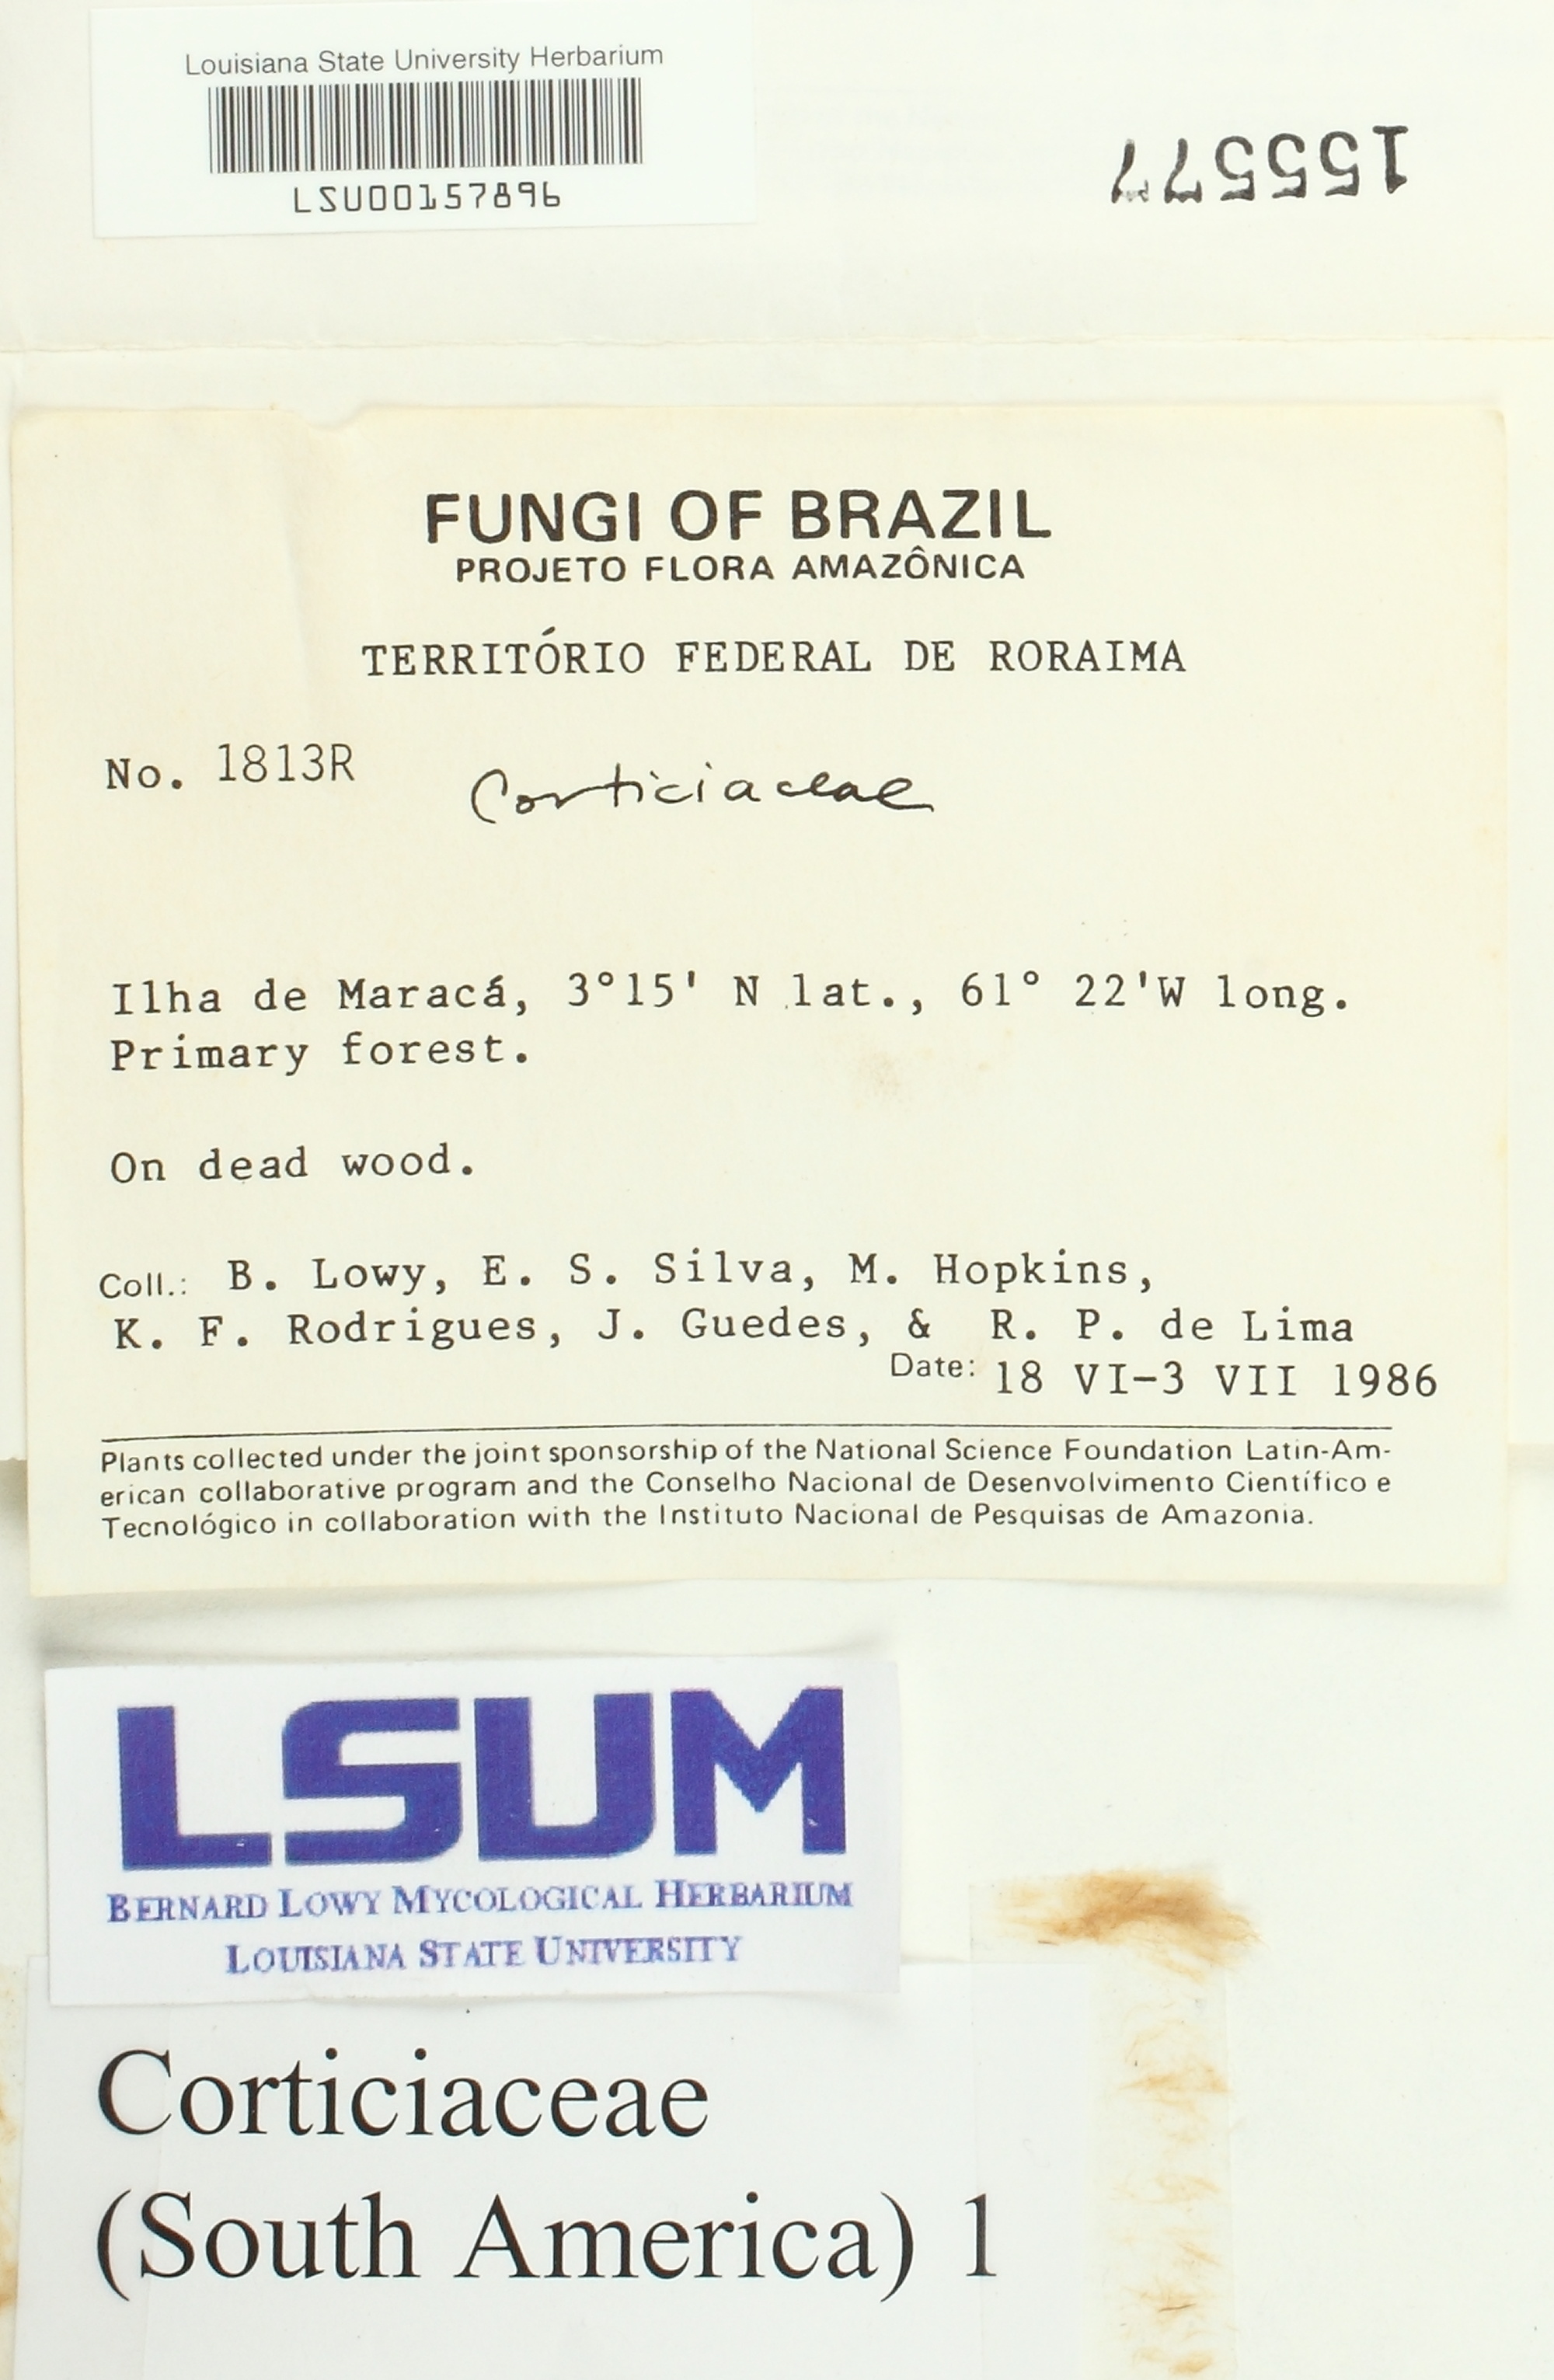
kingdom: Fungi
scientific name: Fungi
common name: Fungi
